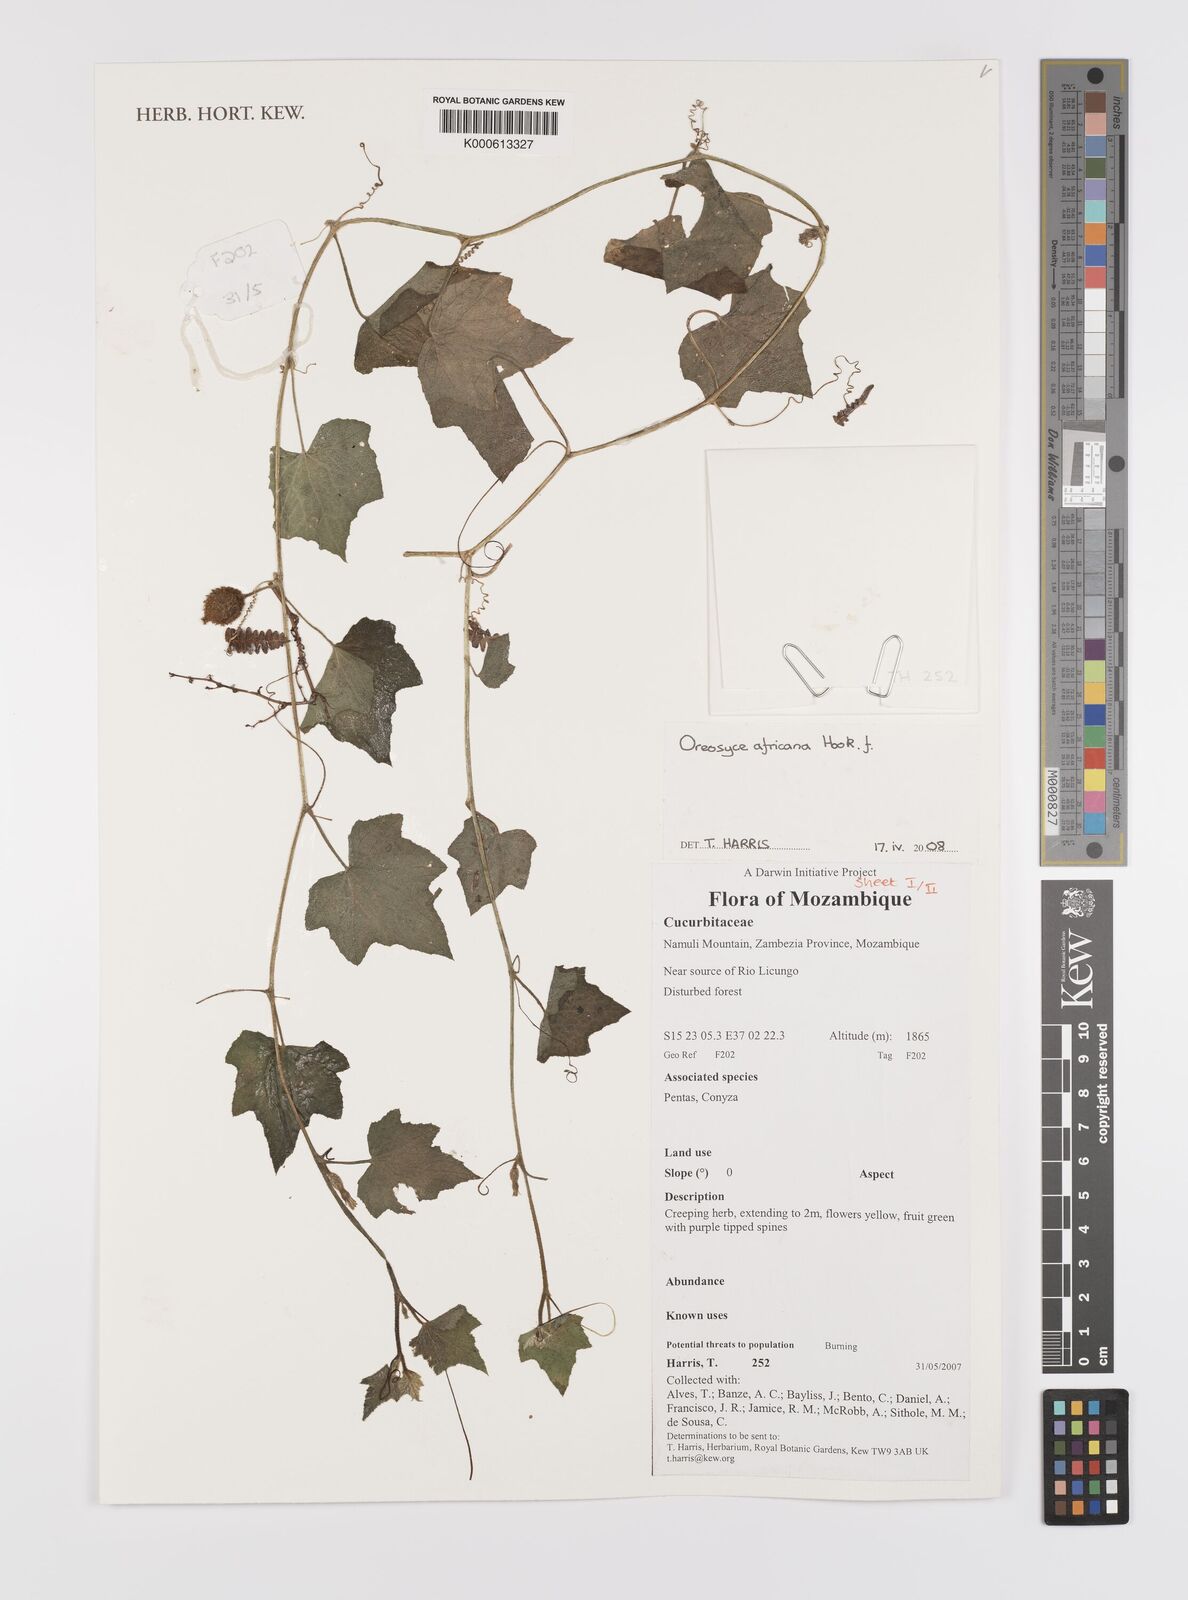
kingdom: Plantae
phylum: Tracheophyta
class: Magnoliopsida
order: Cucurbitales
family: Cucurbitaceae
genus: Cucumis
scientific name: Cucumis oreosyce
